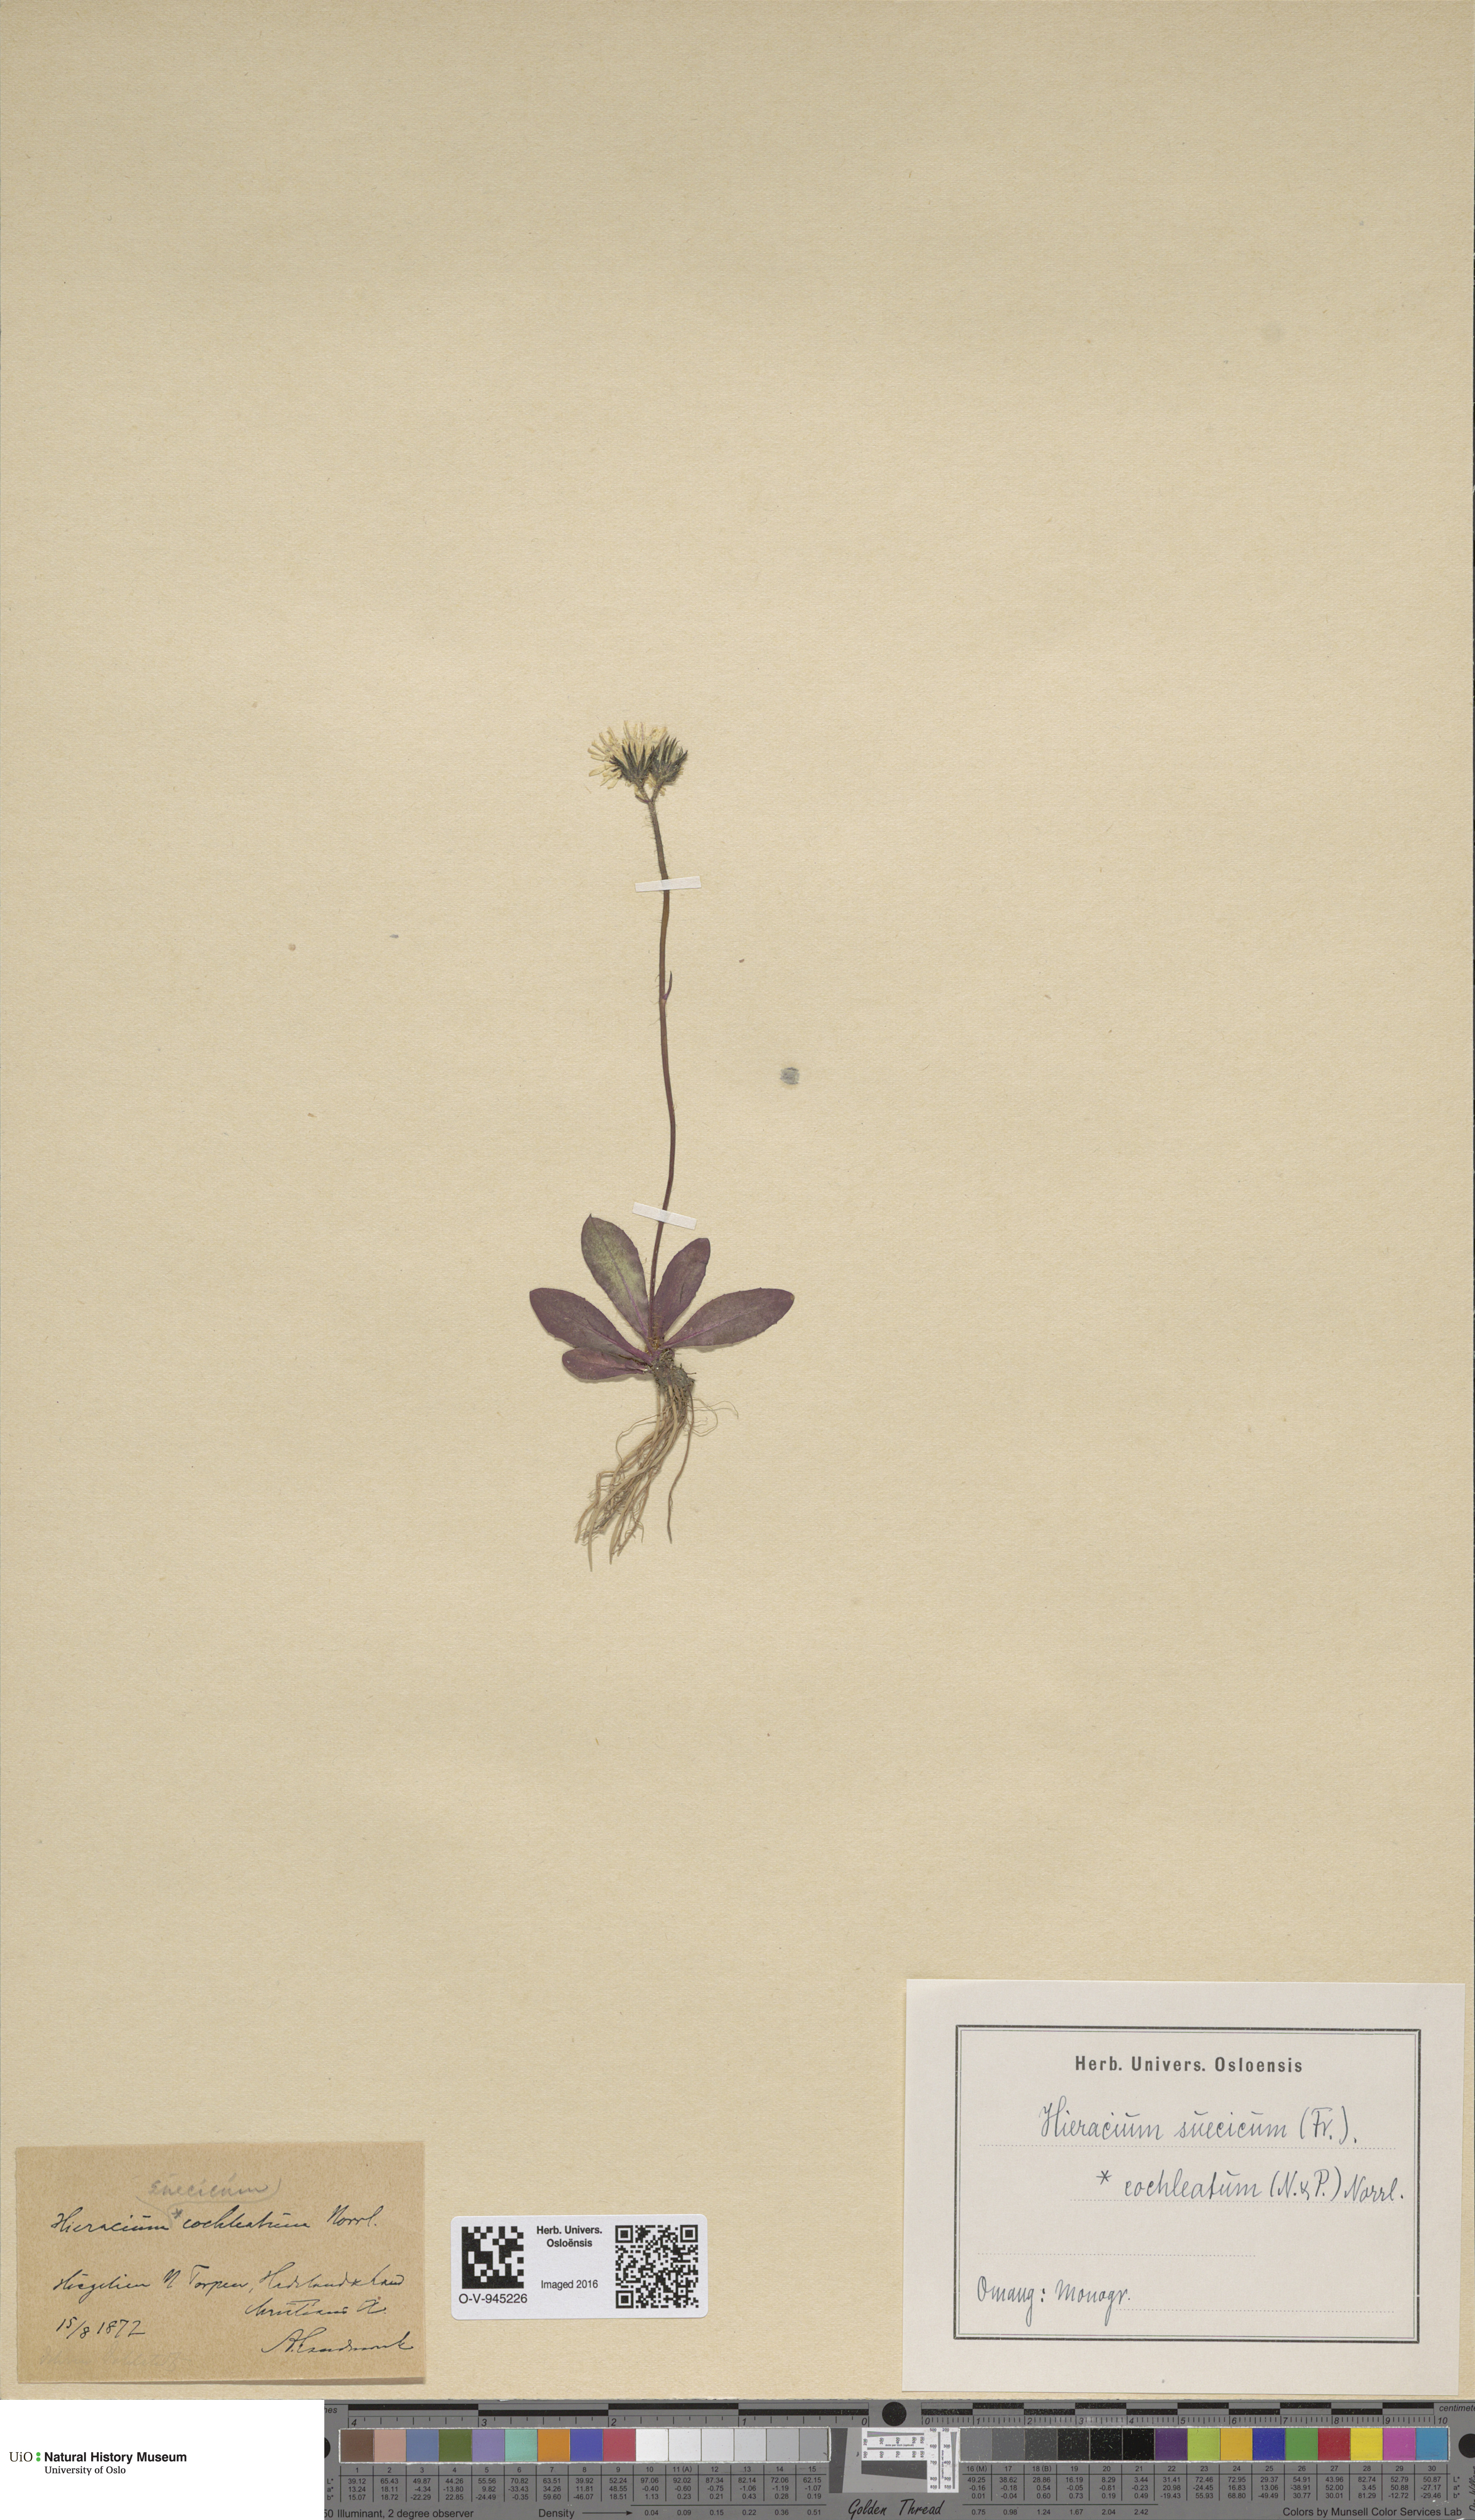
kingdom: Plantae
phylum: Tracheophyta
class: Magnoliopsida
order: Asterales
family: Asteraceae
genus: Pilosella
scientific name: Pilosella dubia
